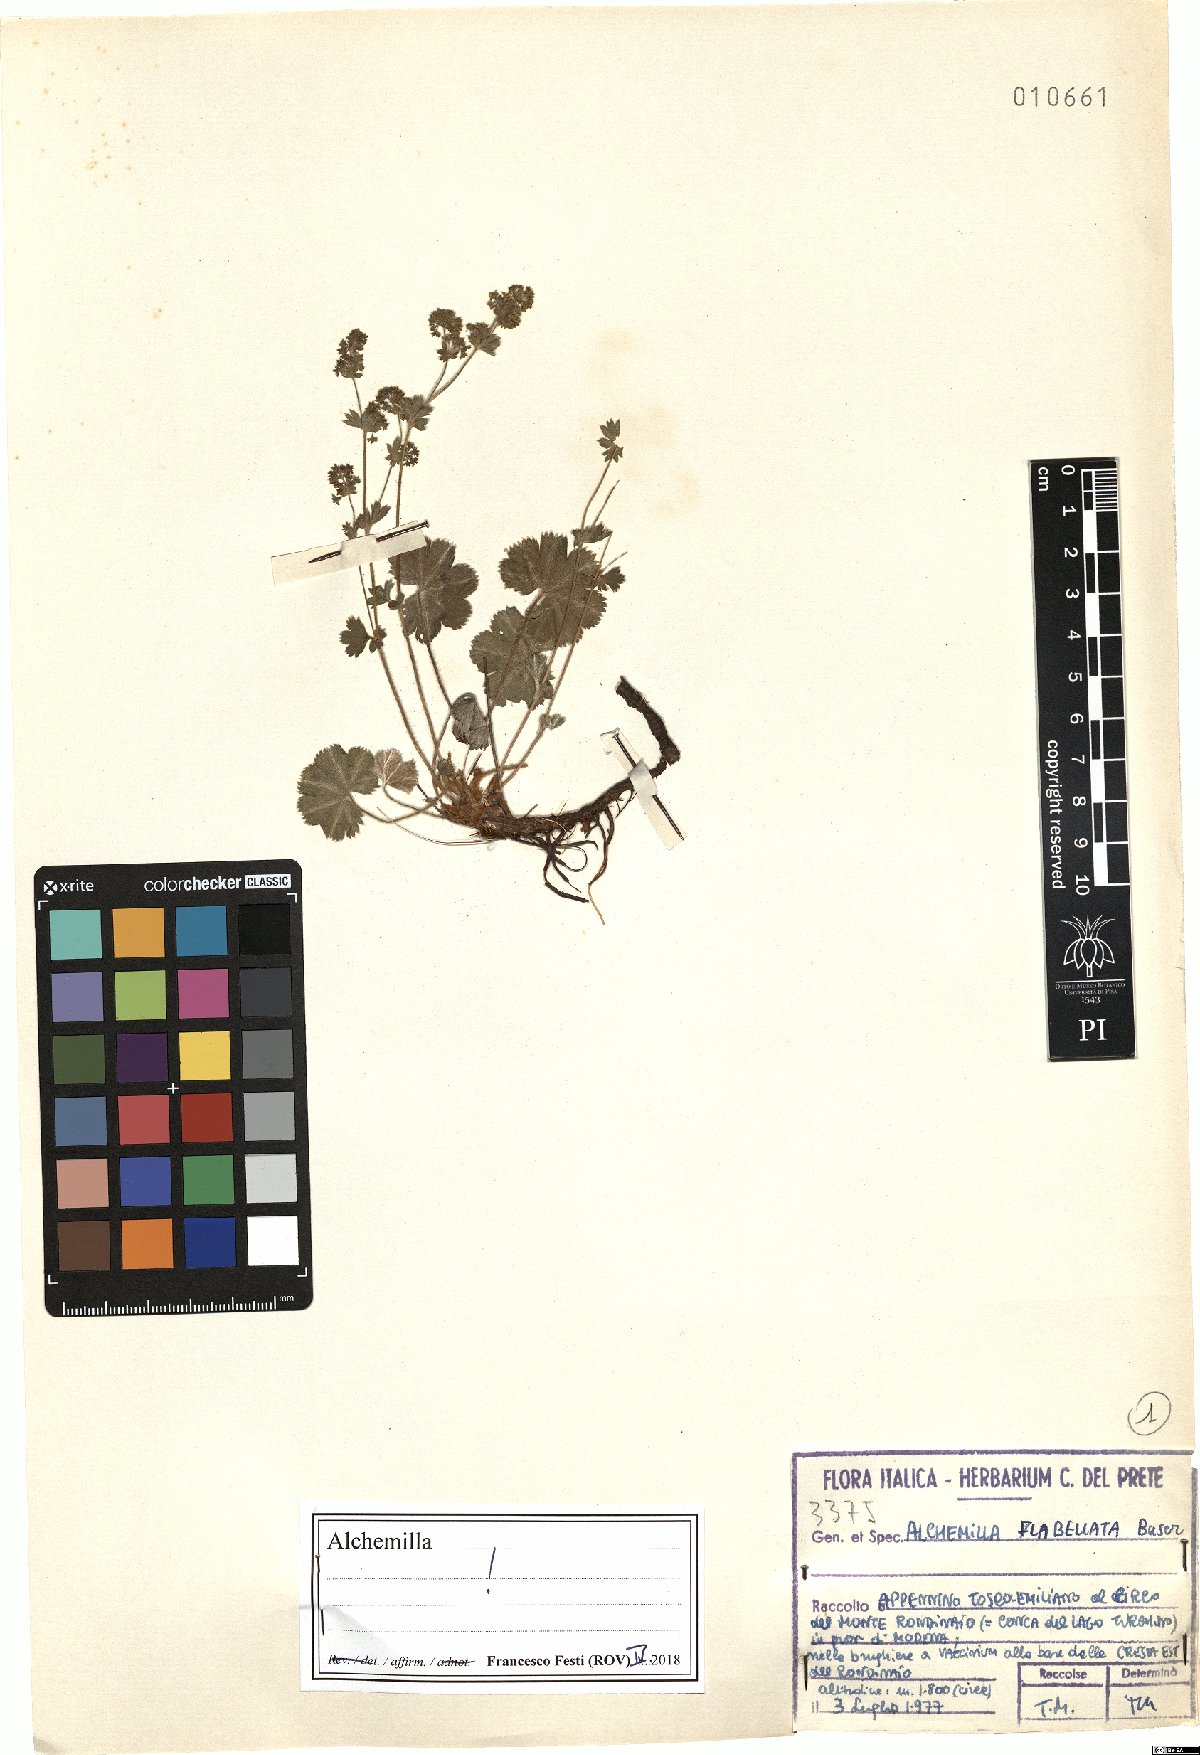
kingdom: Plantae
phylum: Tracheophyta
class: Magnoliopsida
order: Rosales
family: Rosaceae
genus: Alchemilla
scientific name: Alchemilla flabellata
